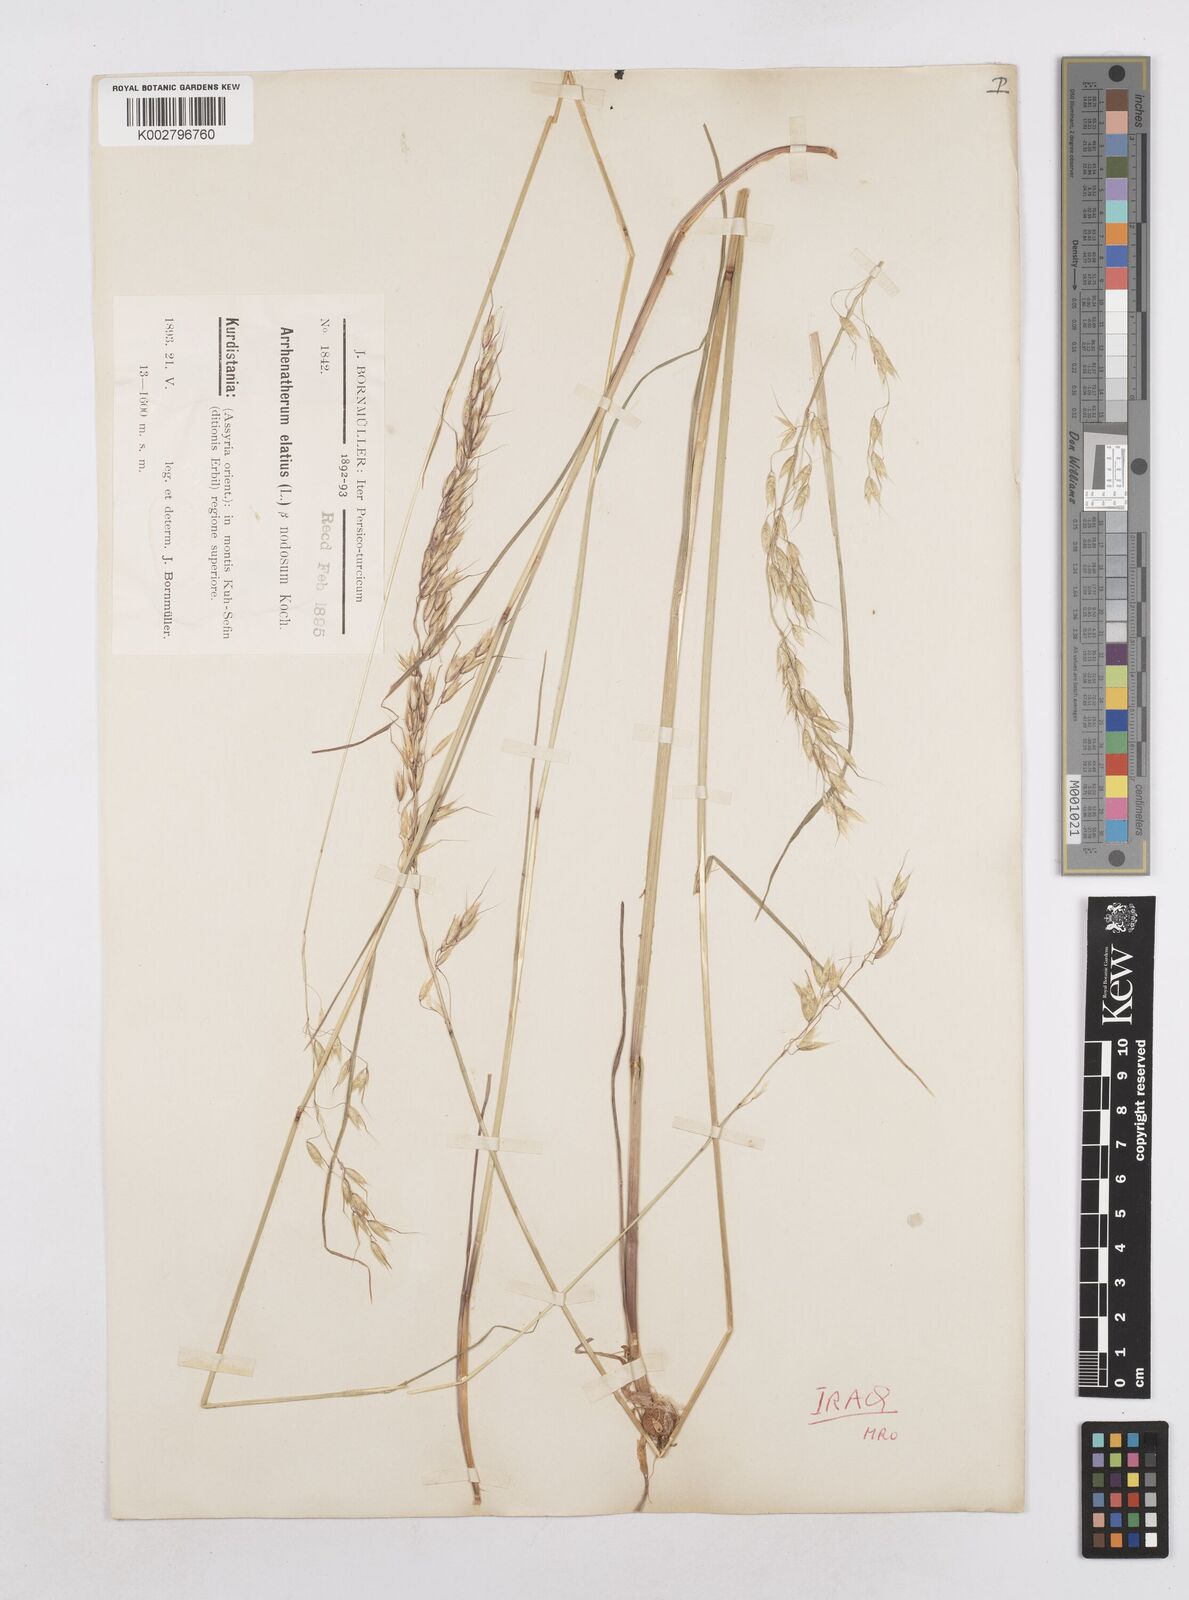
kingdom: Plantae
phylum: Tracheophyta
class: Liliopsida
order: Poales
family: Poaceae
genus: Arrhenatherum
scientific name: Arrhenatherum elatius
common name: Tall oatgrass
